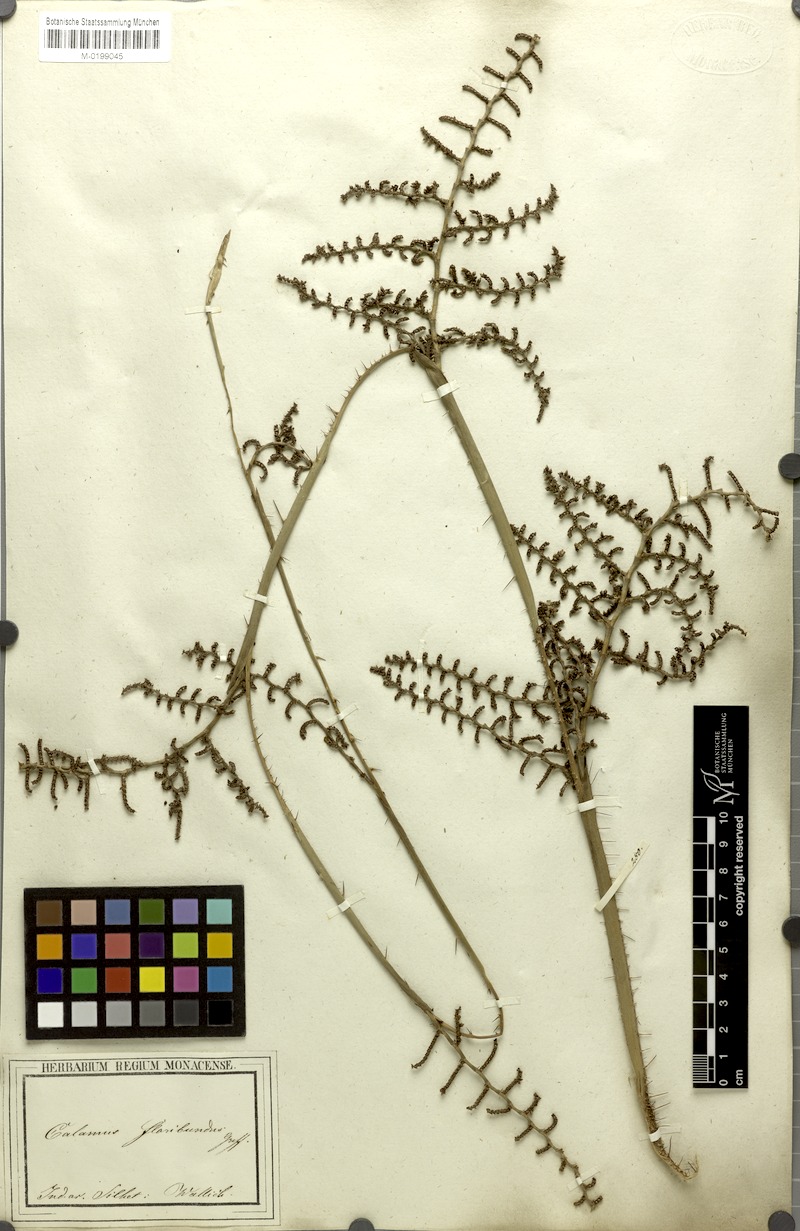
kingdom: Plantae
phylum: Tracheophyta
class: Liliopsida
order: Arecales
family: Arecaceae
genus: Calamus
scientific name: Calamus floribundus
